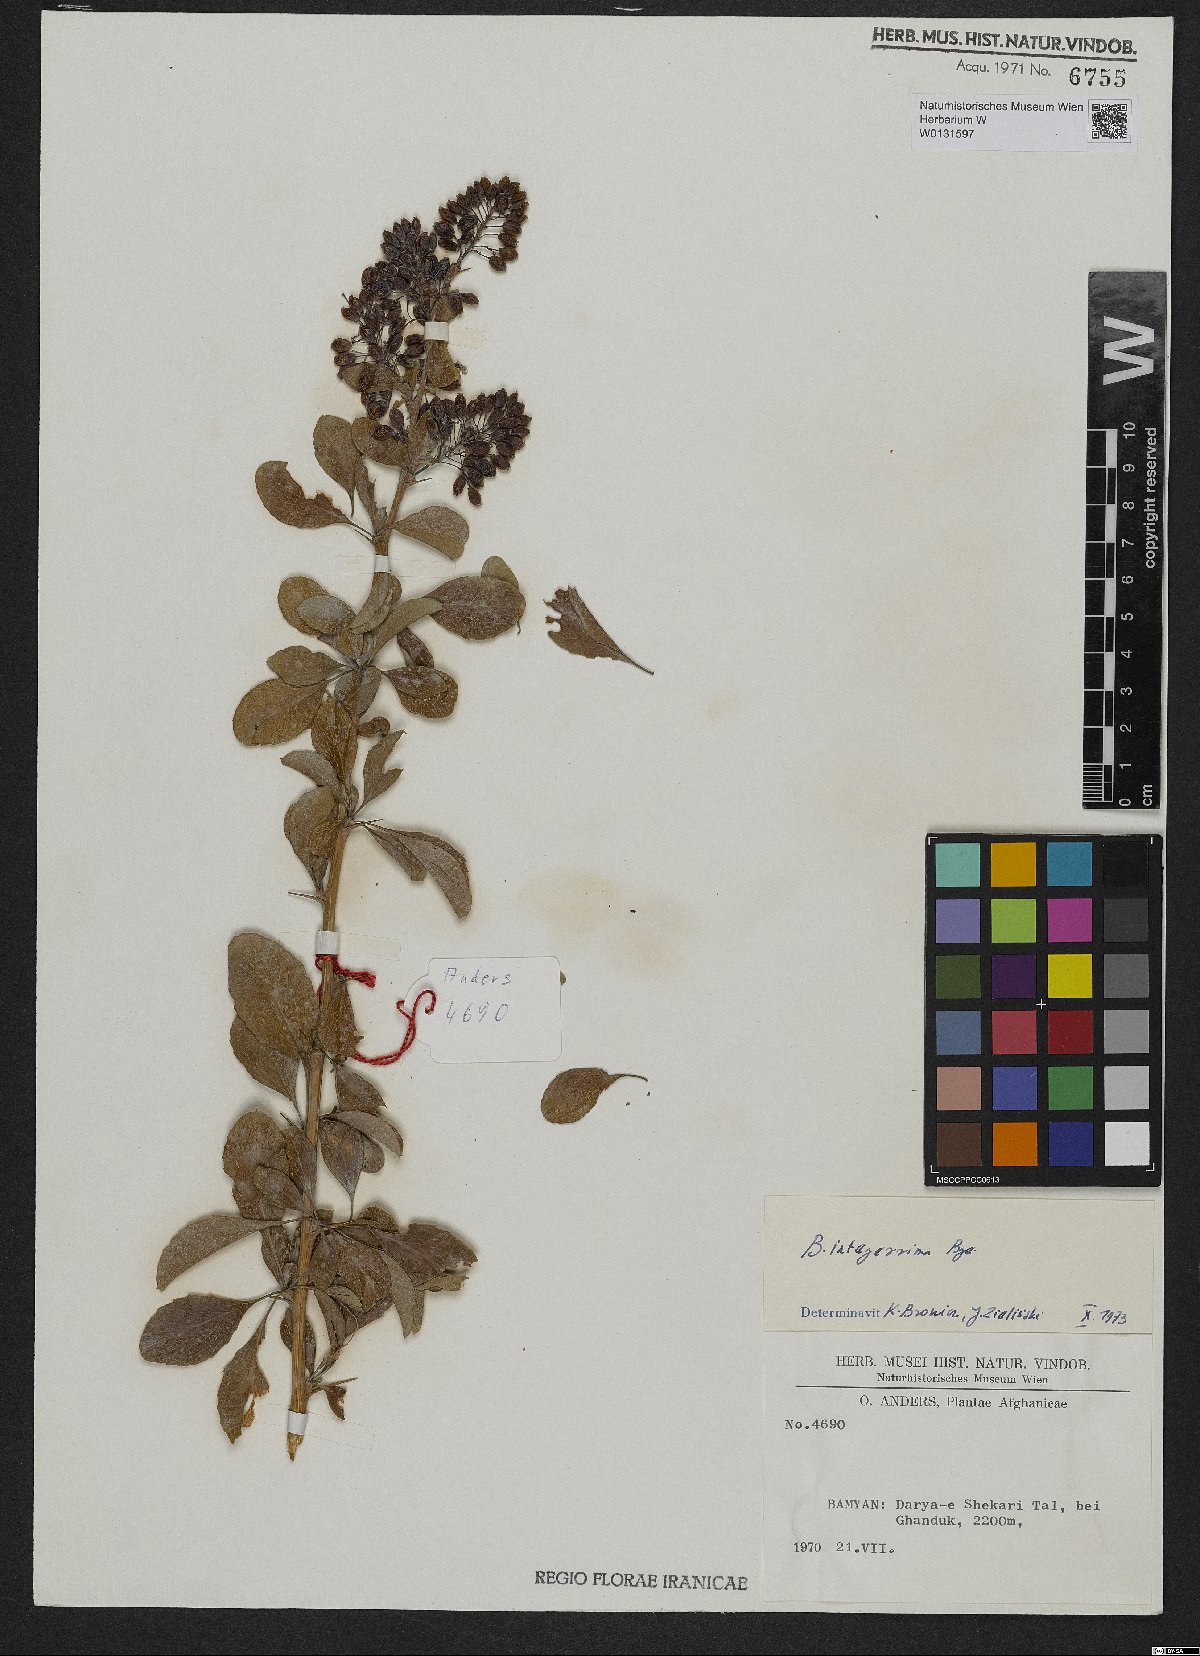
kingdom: Plantae
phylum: Tracheophyta
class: Magnoliopsida
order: Ranunculales
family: Berberidaceae
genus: Berberis
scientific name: Berberis integerrima
